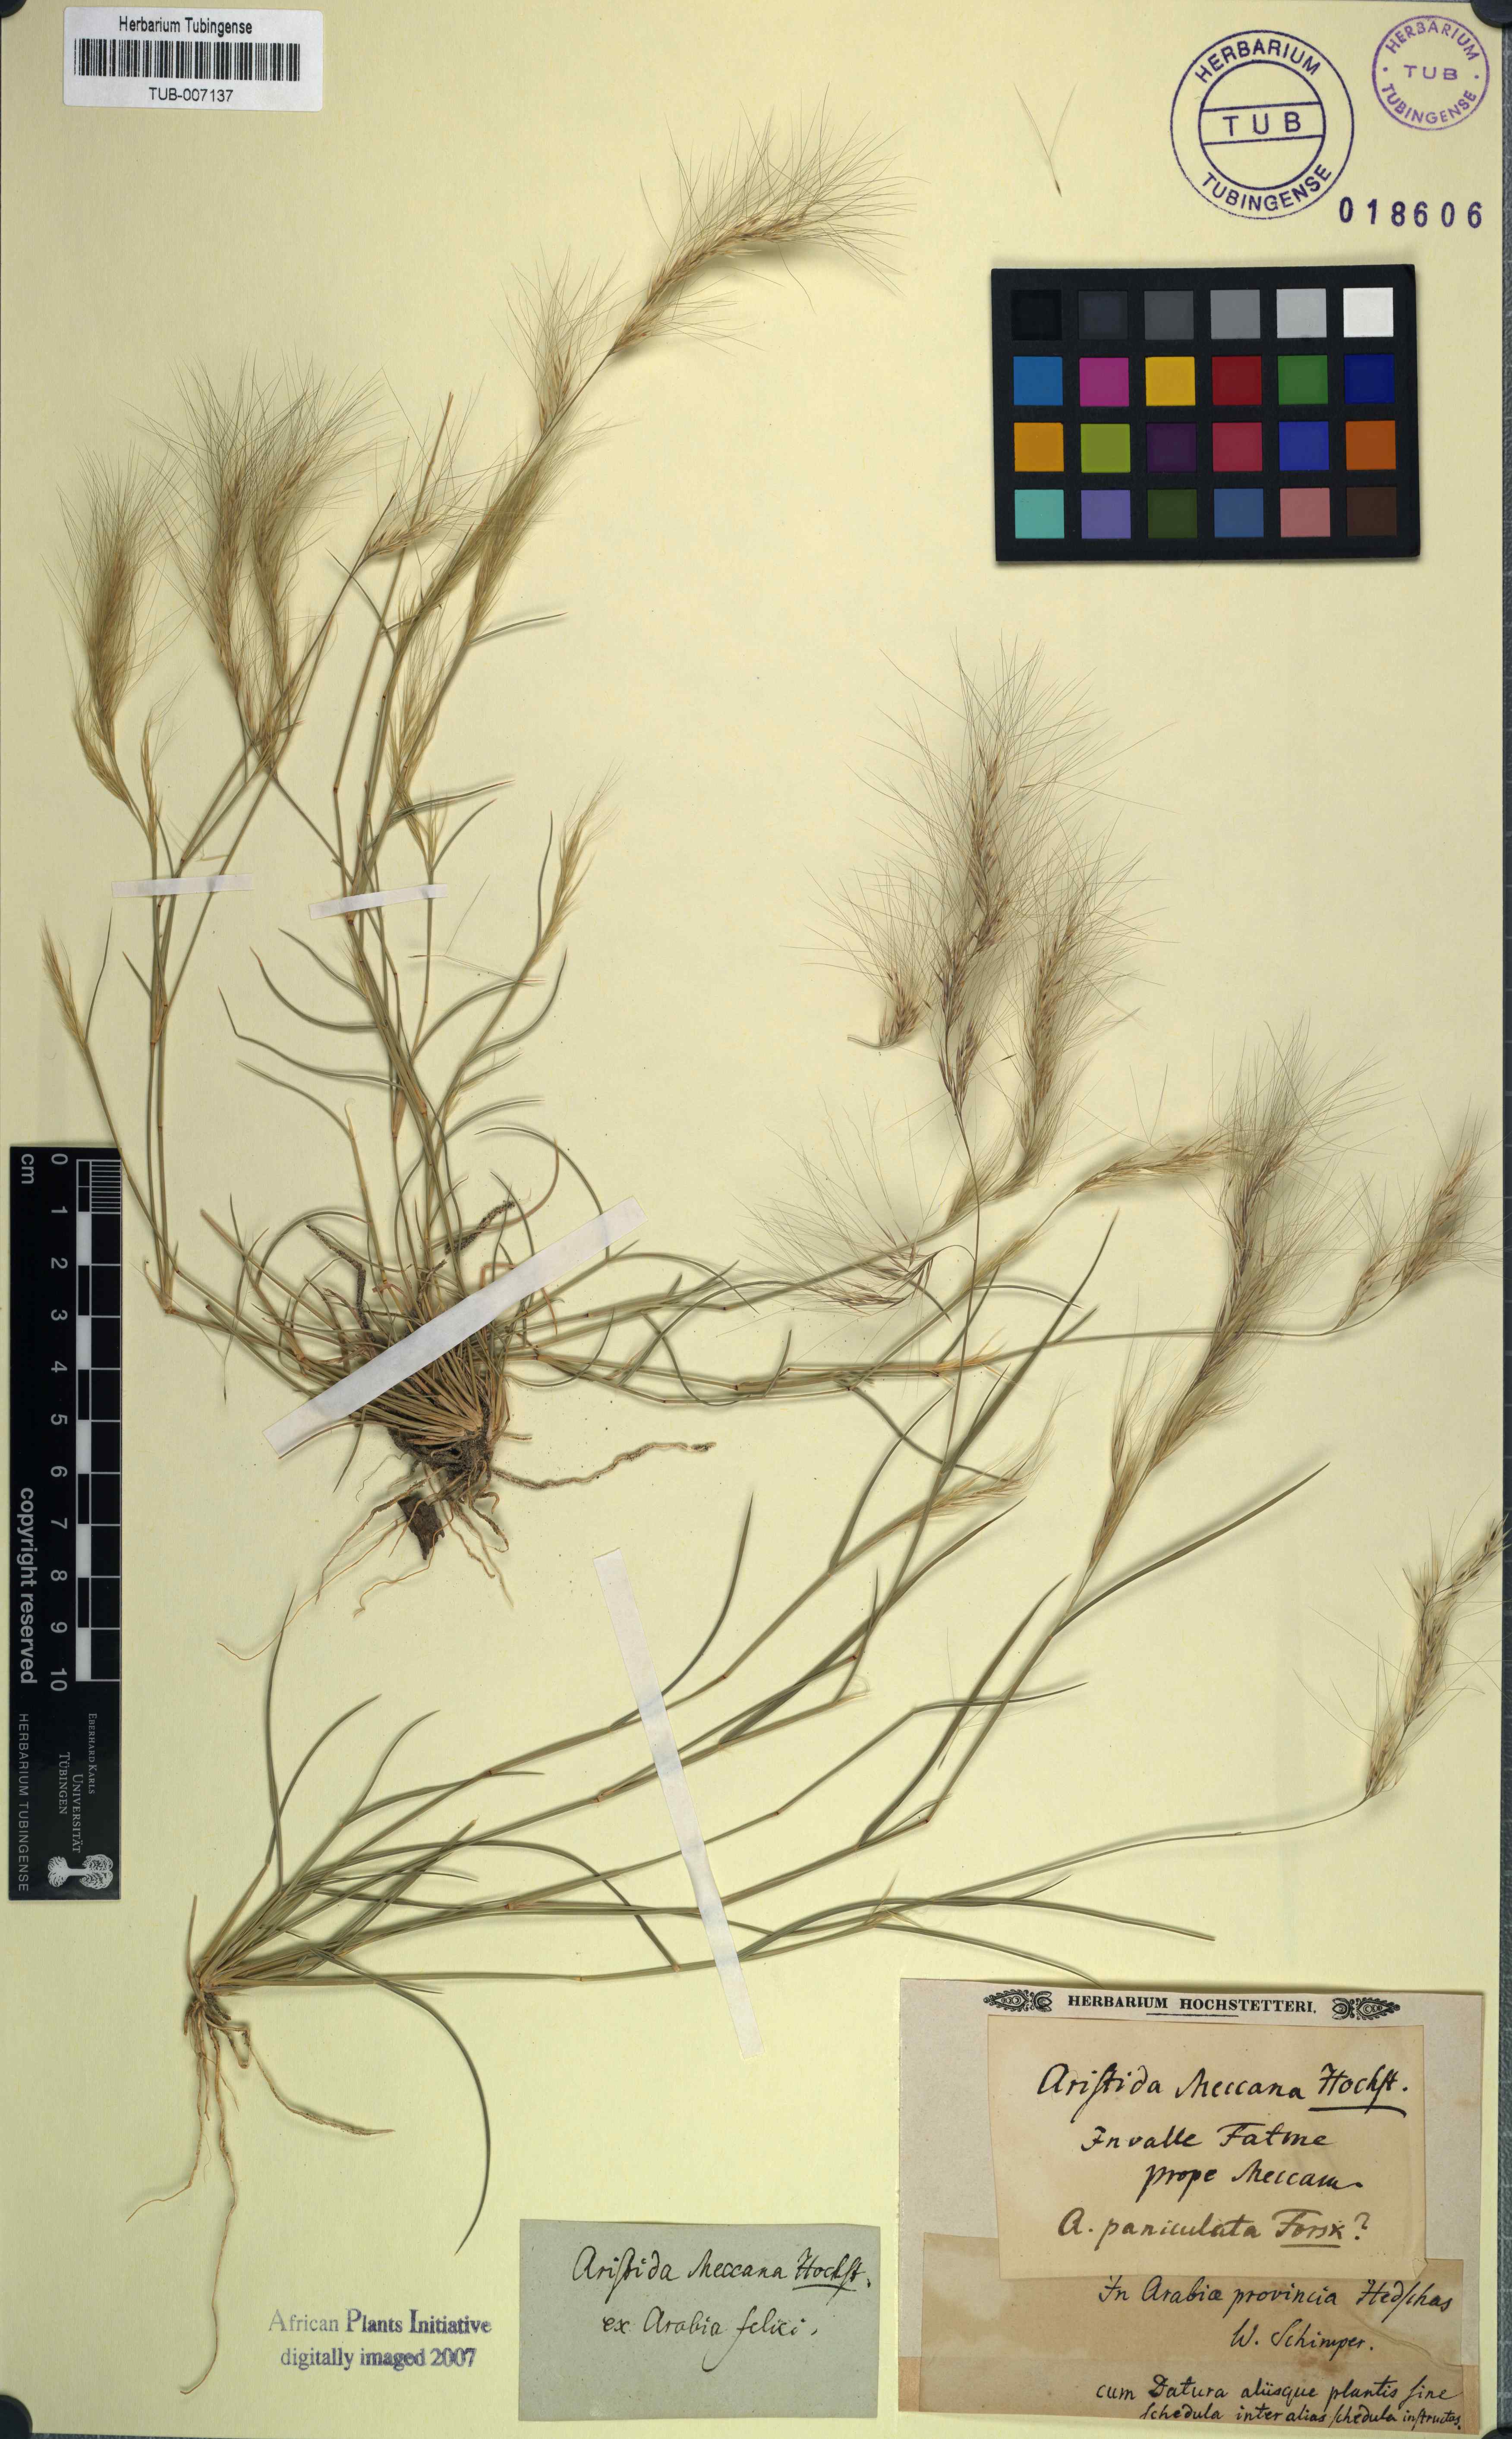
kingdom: Plantae
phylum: Tracheophyta
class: Liliopsida
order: Poales
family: Poaceae
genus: Aristida
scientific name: Aristida mutabilis
